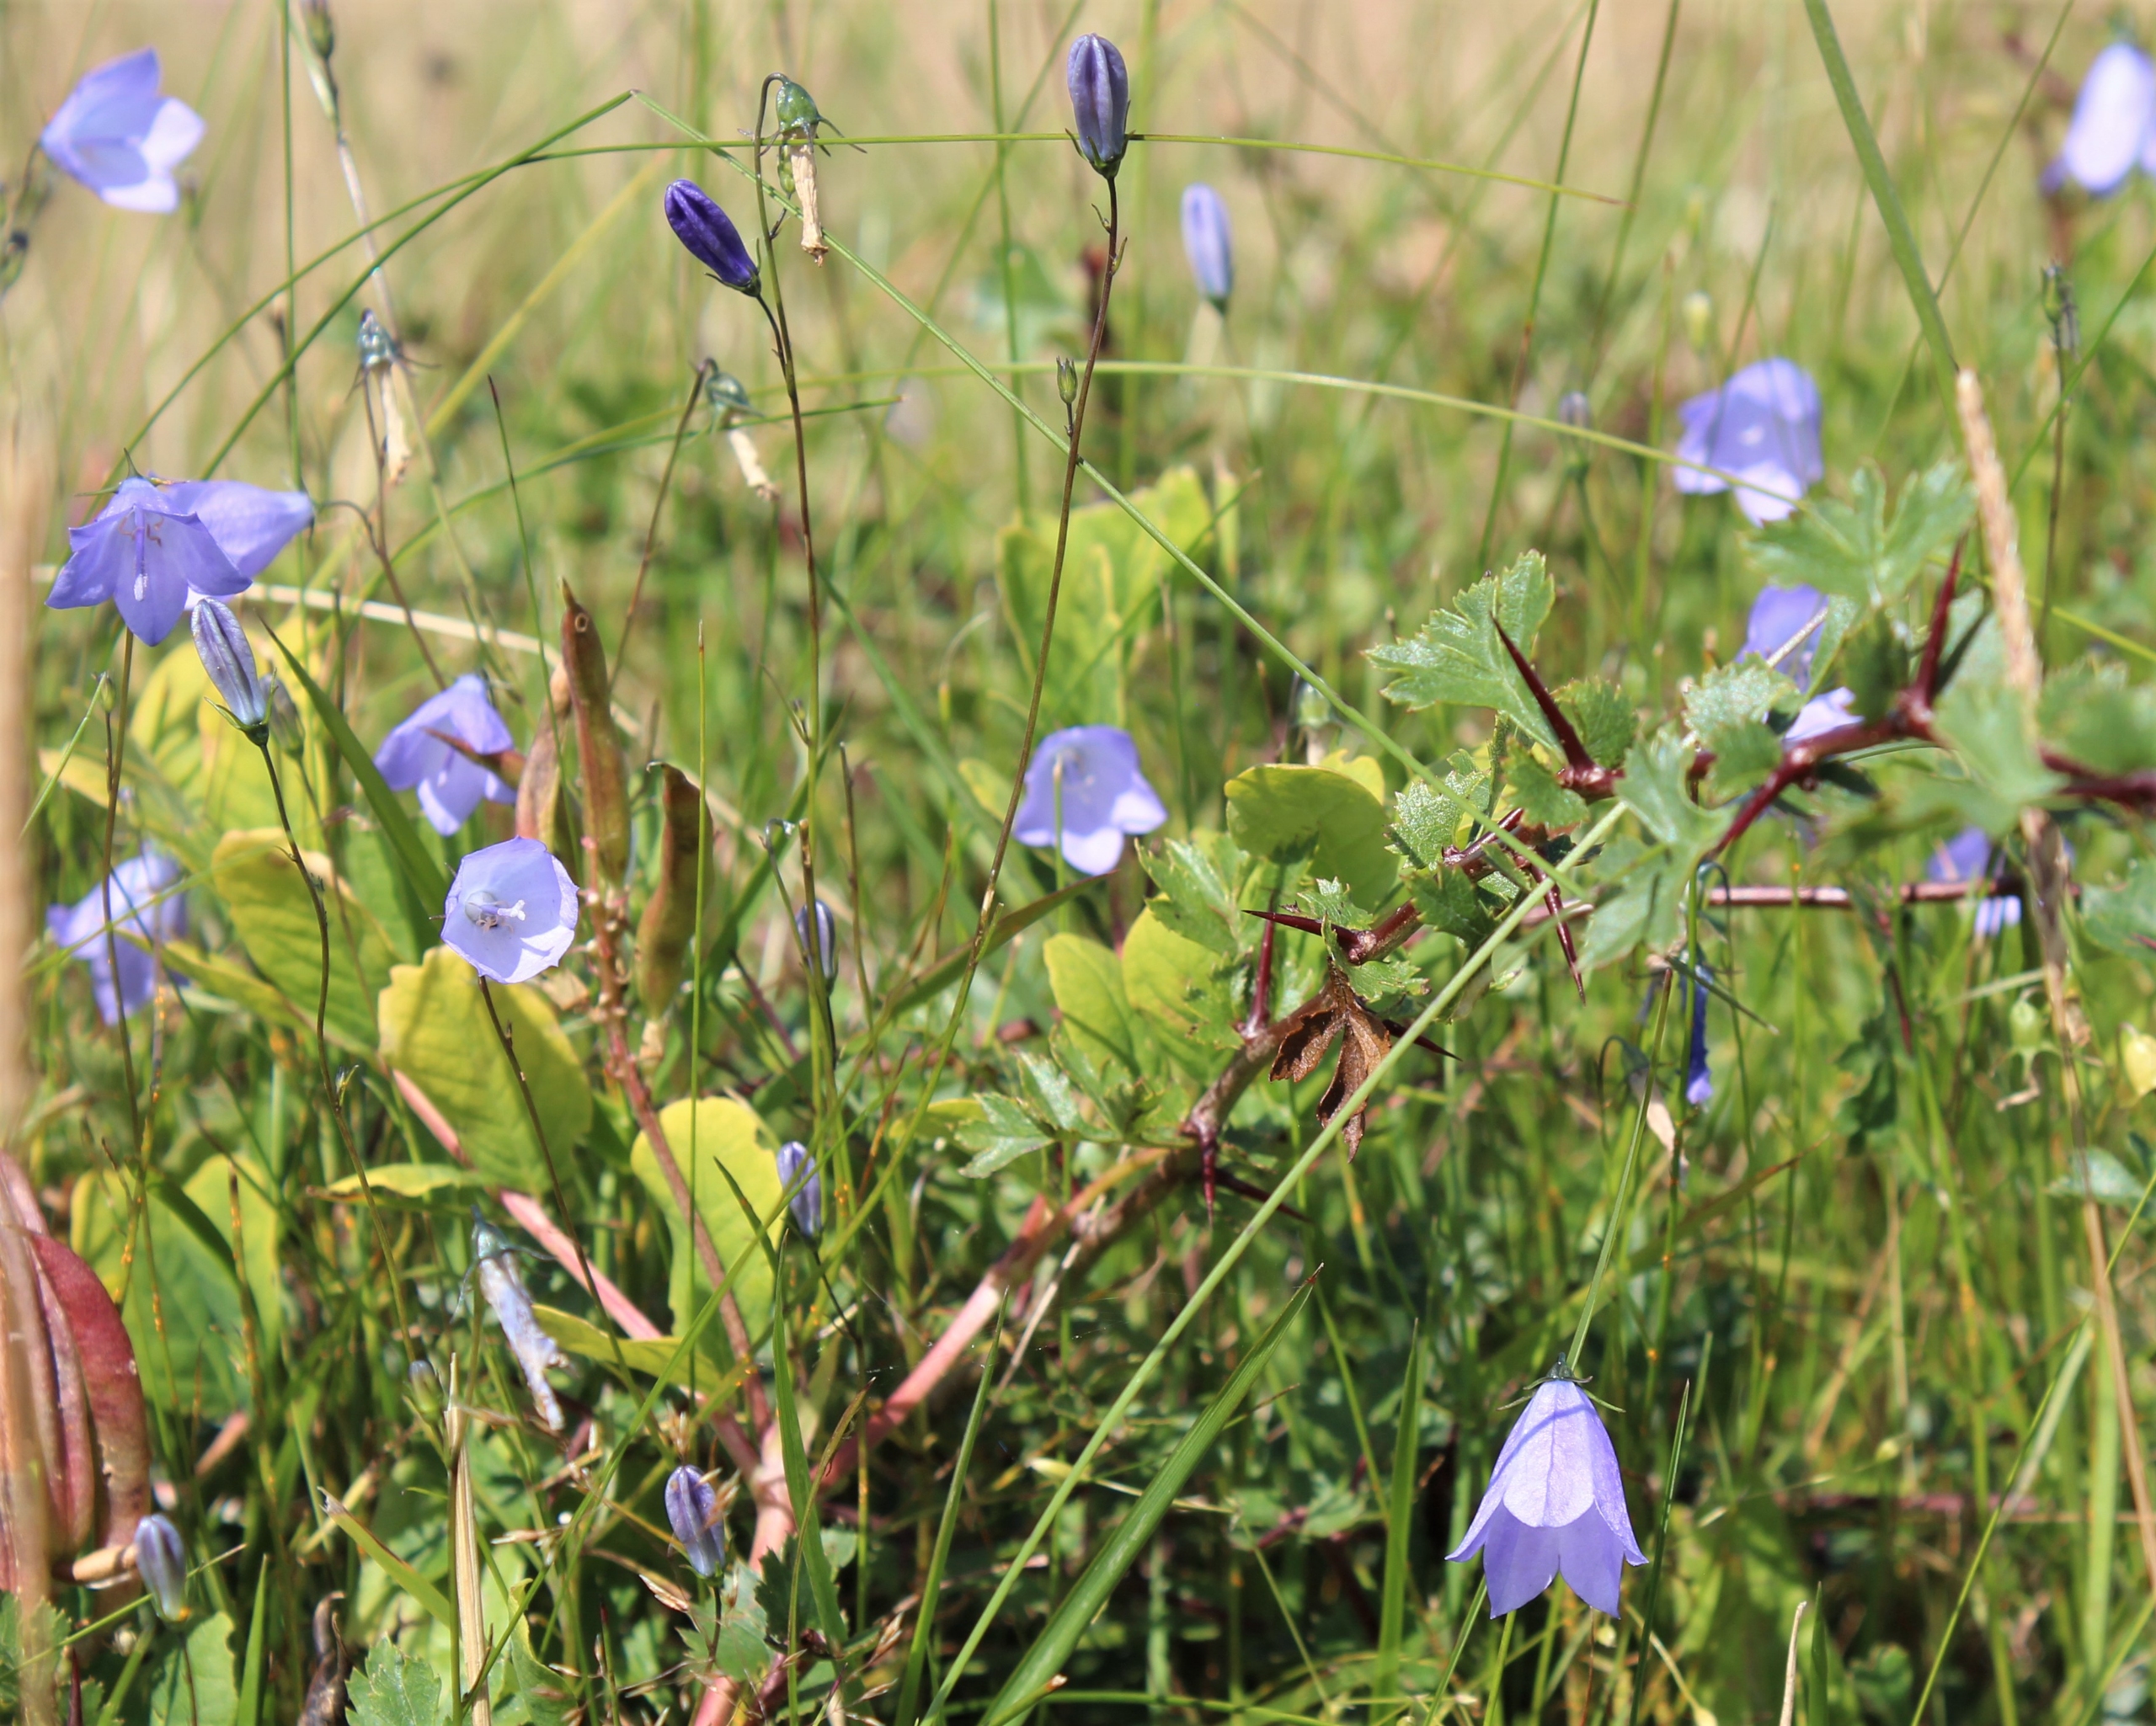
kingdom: Plantae
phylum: Tracheophyta
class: Magnoliopsida
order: Asterales
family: Campanulaceae
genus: Campanula
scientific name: Campanula rotundifolia
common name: Liden klokke
